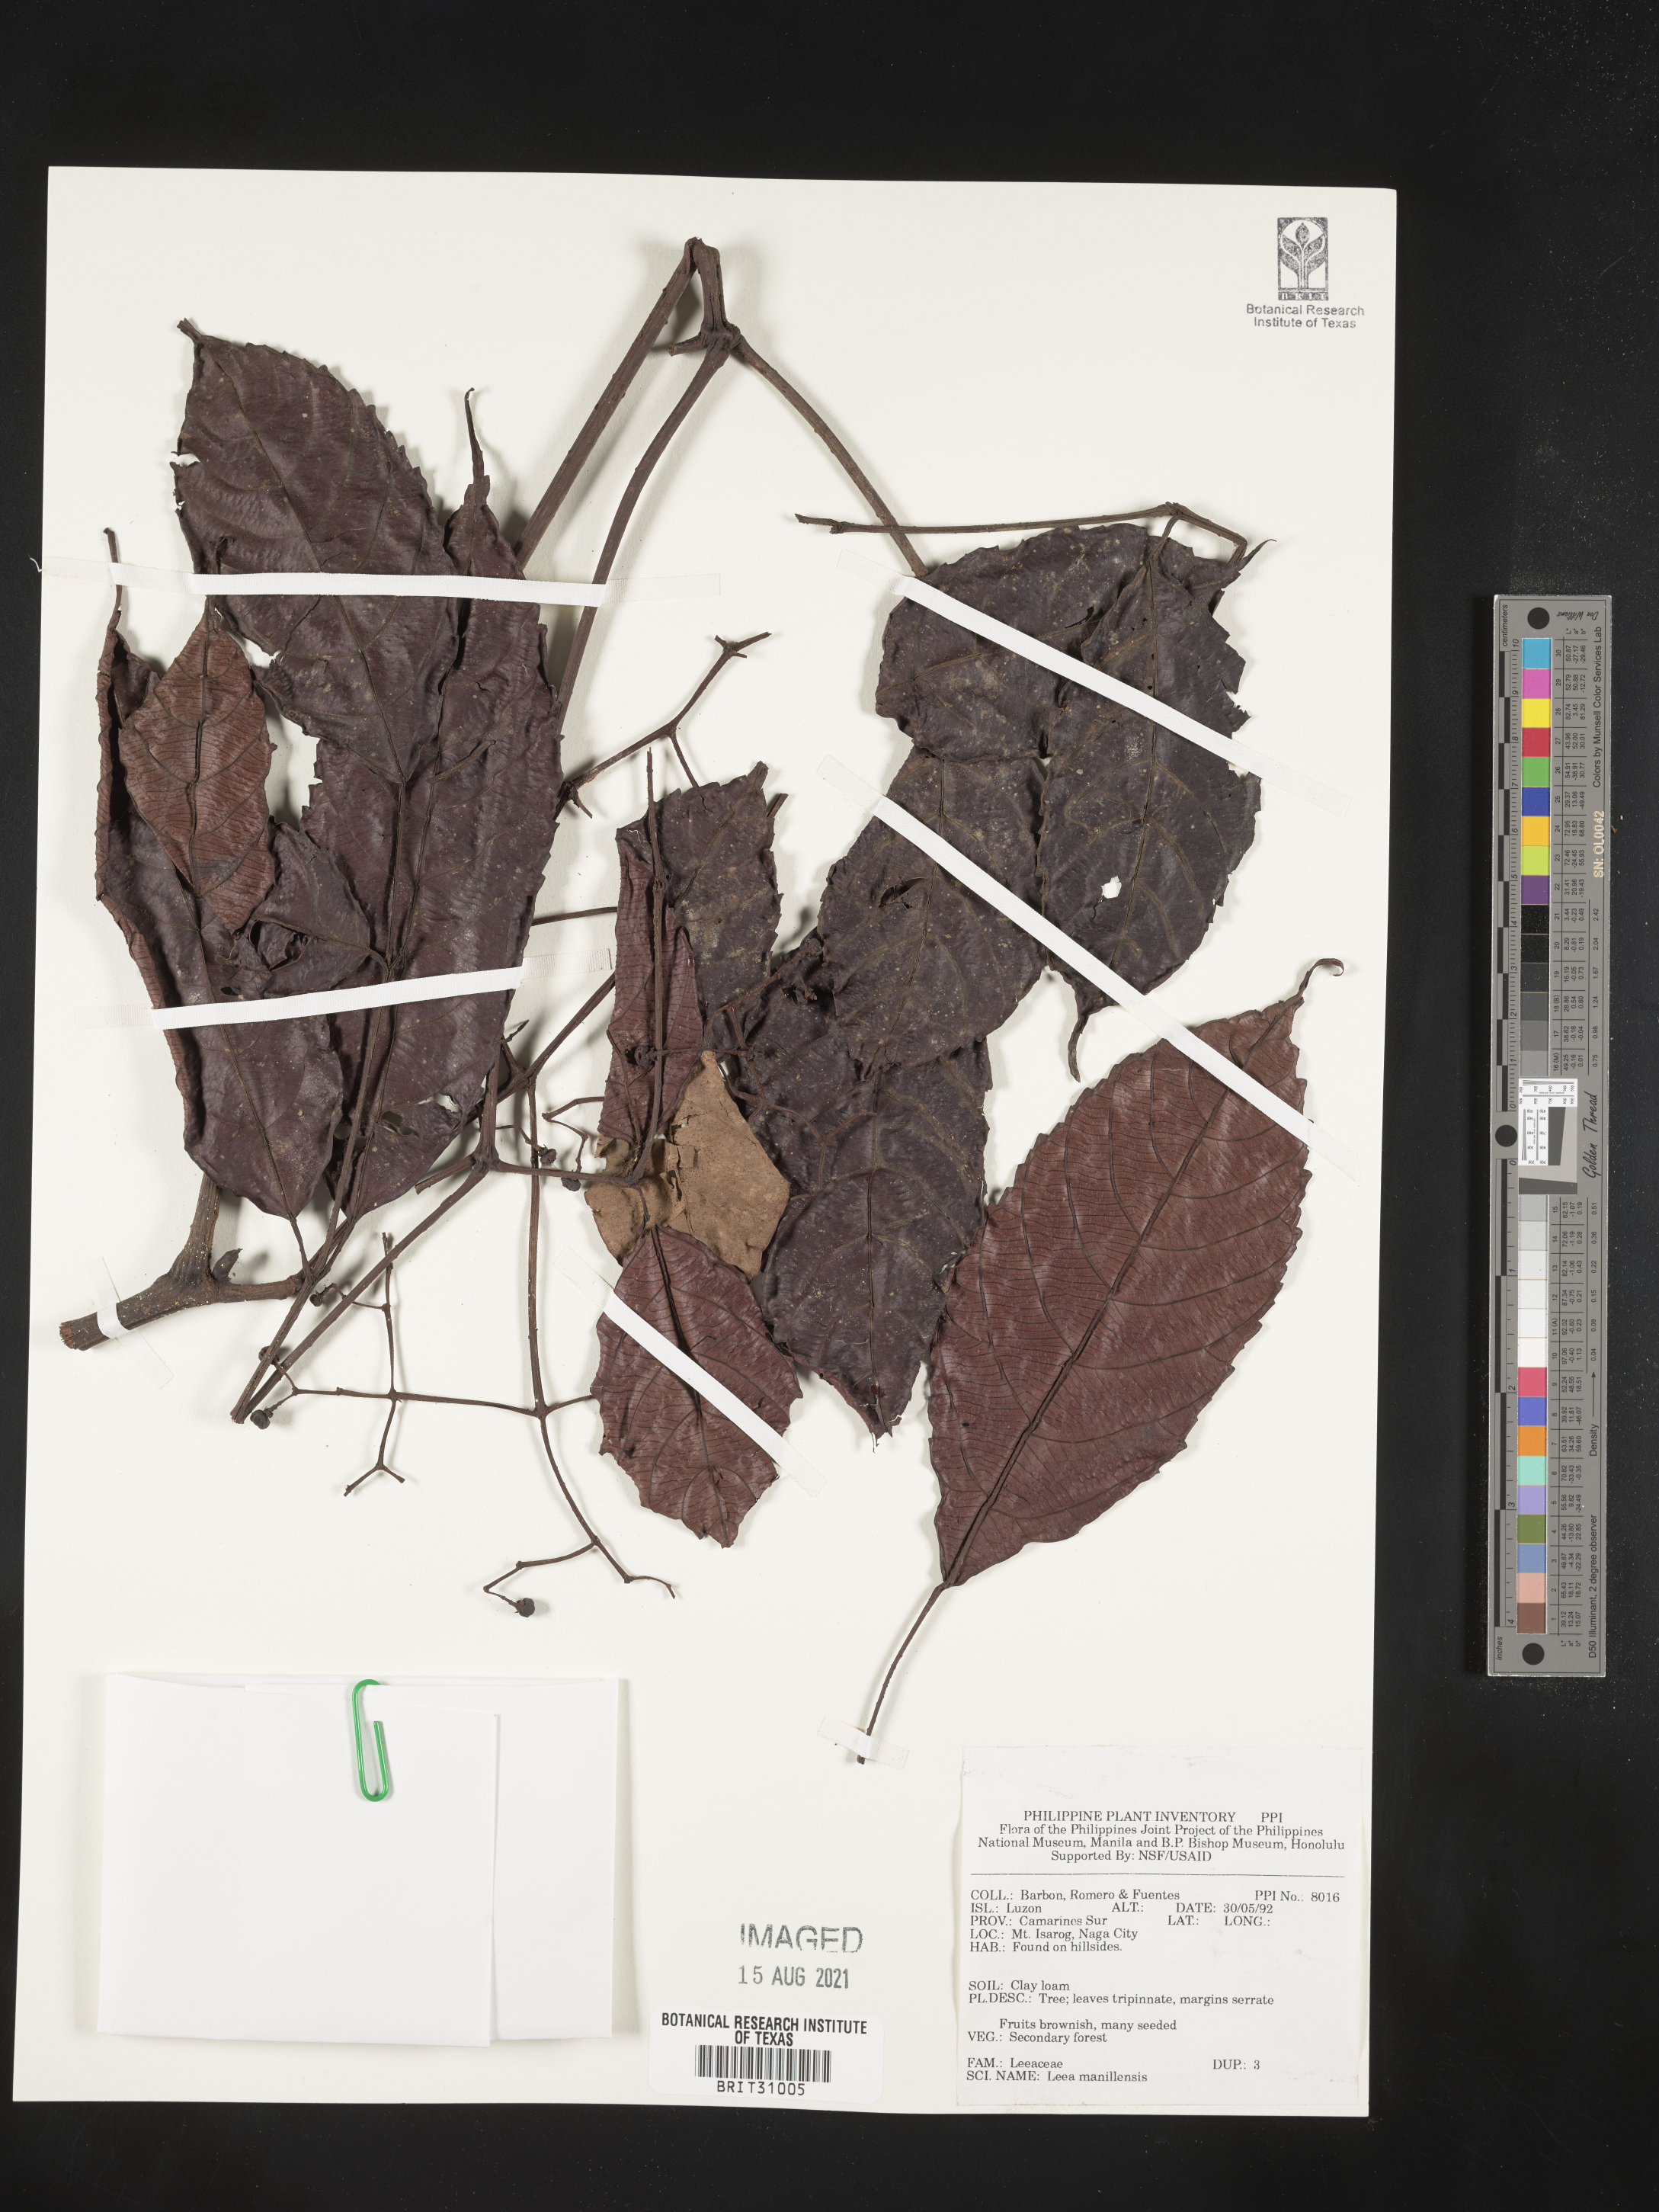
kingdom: Plantae
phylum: Tracheophyta
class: Magnoliopsida
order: Vitales
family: Vitaceae
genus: Leea
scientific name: Leea guineensis
